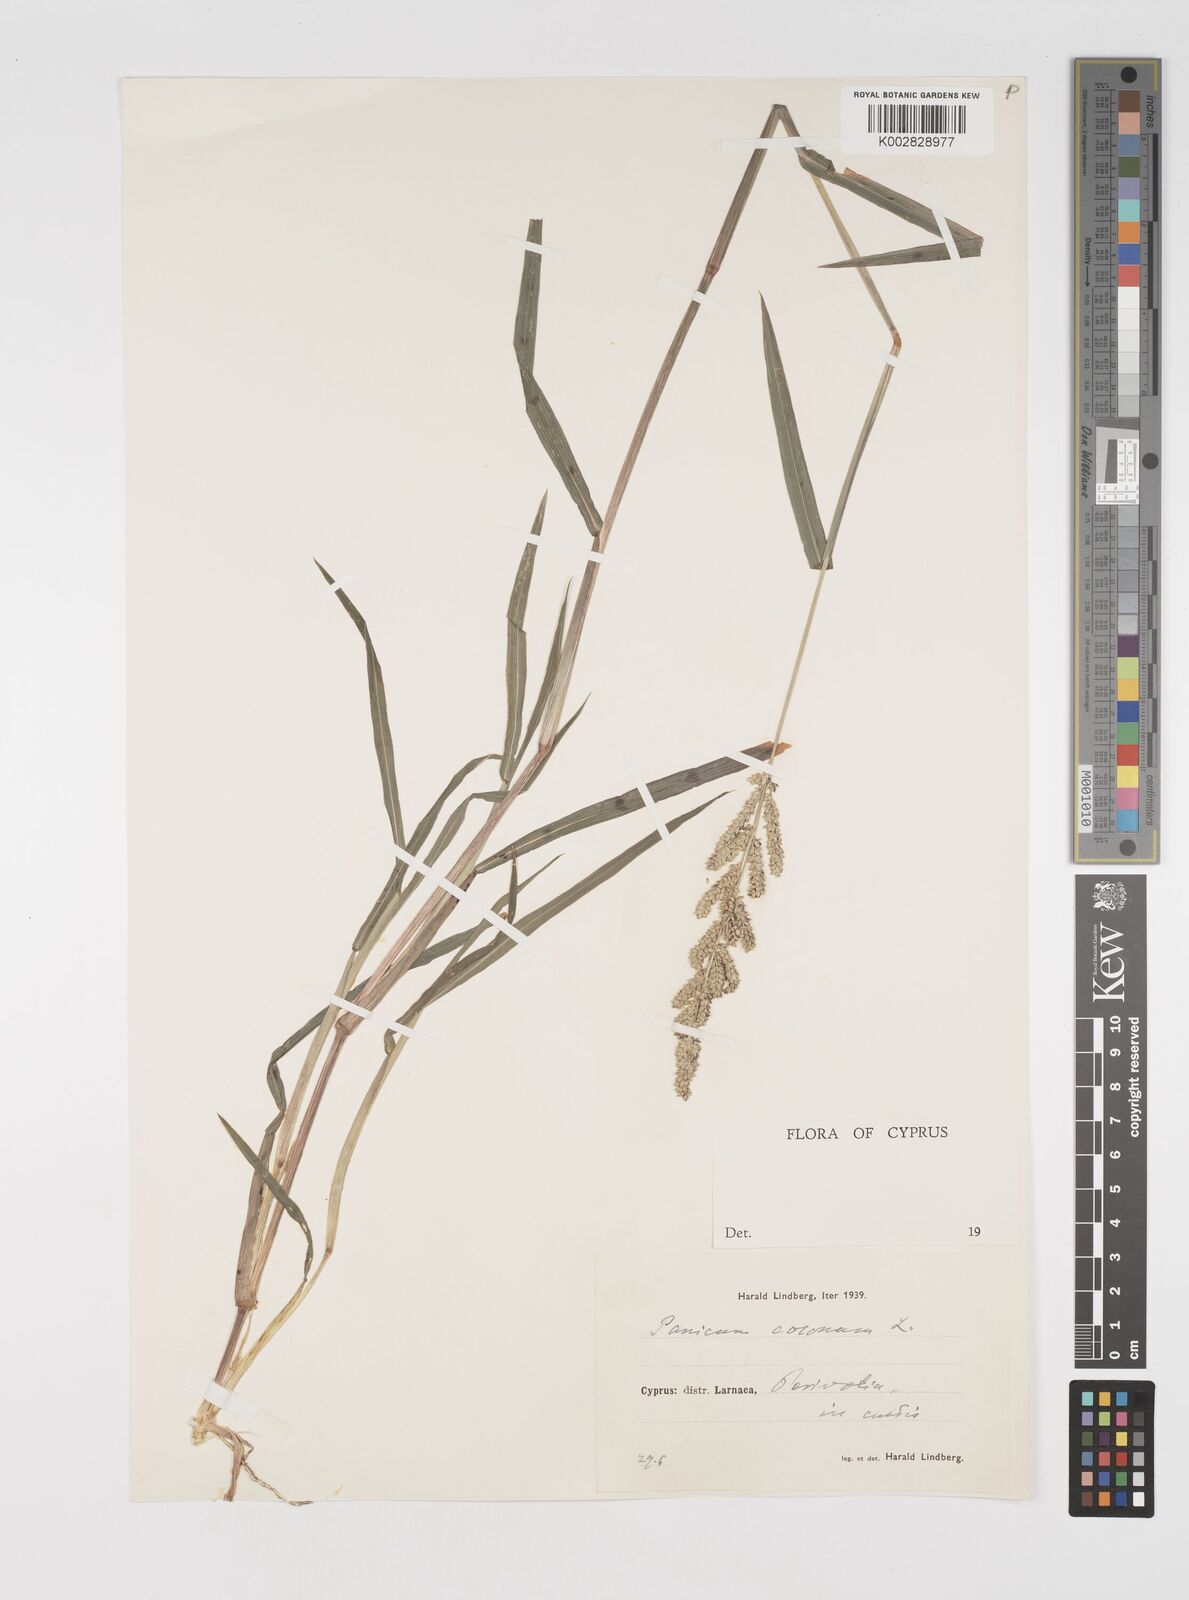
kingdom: Plantae
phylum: Tracheophyta
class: Liliopsida
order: Poales
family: Poaceae
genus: Echinochloa
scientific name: Echinochloa colonum
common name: Jungle rice
